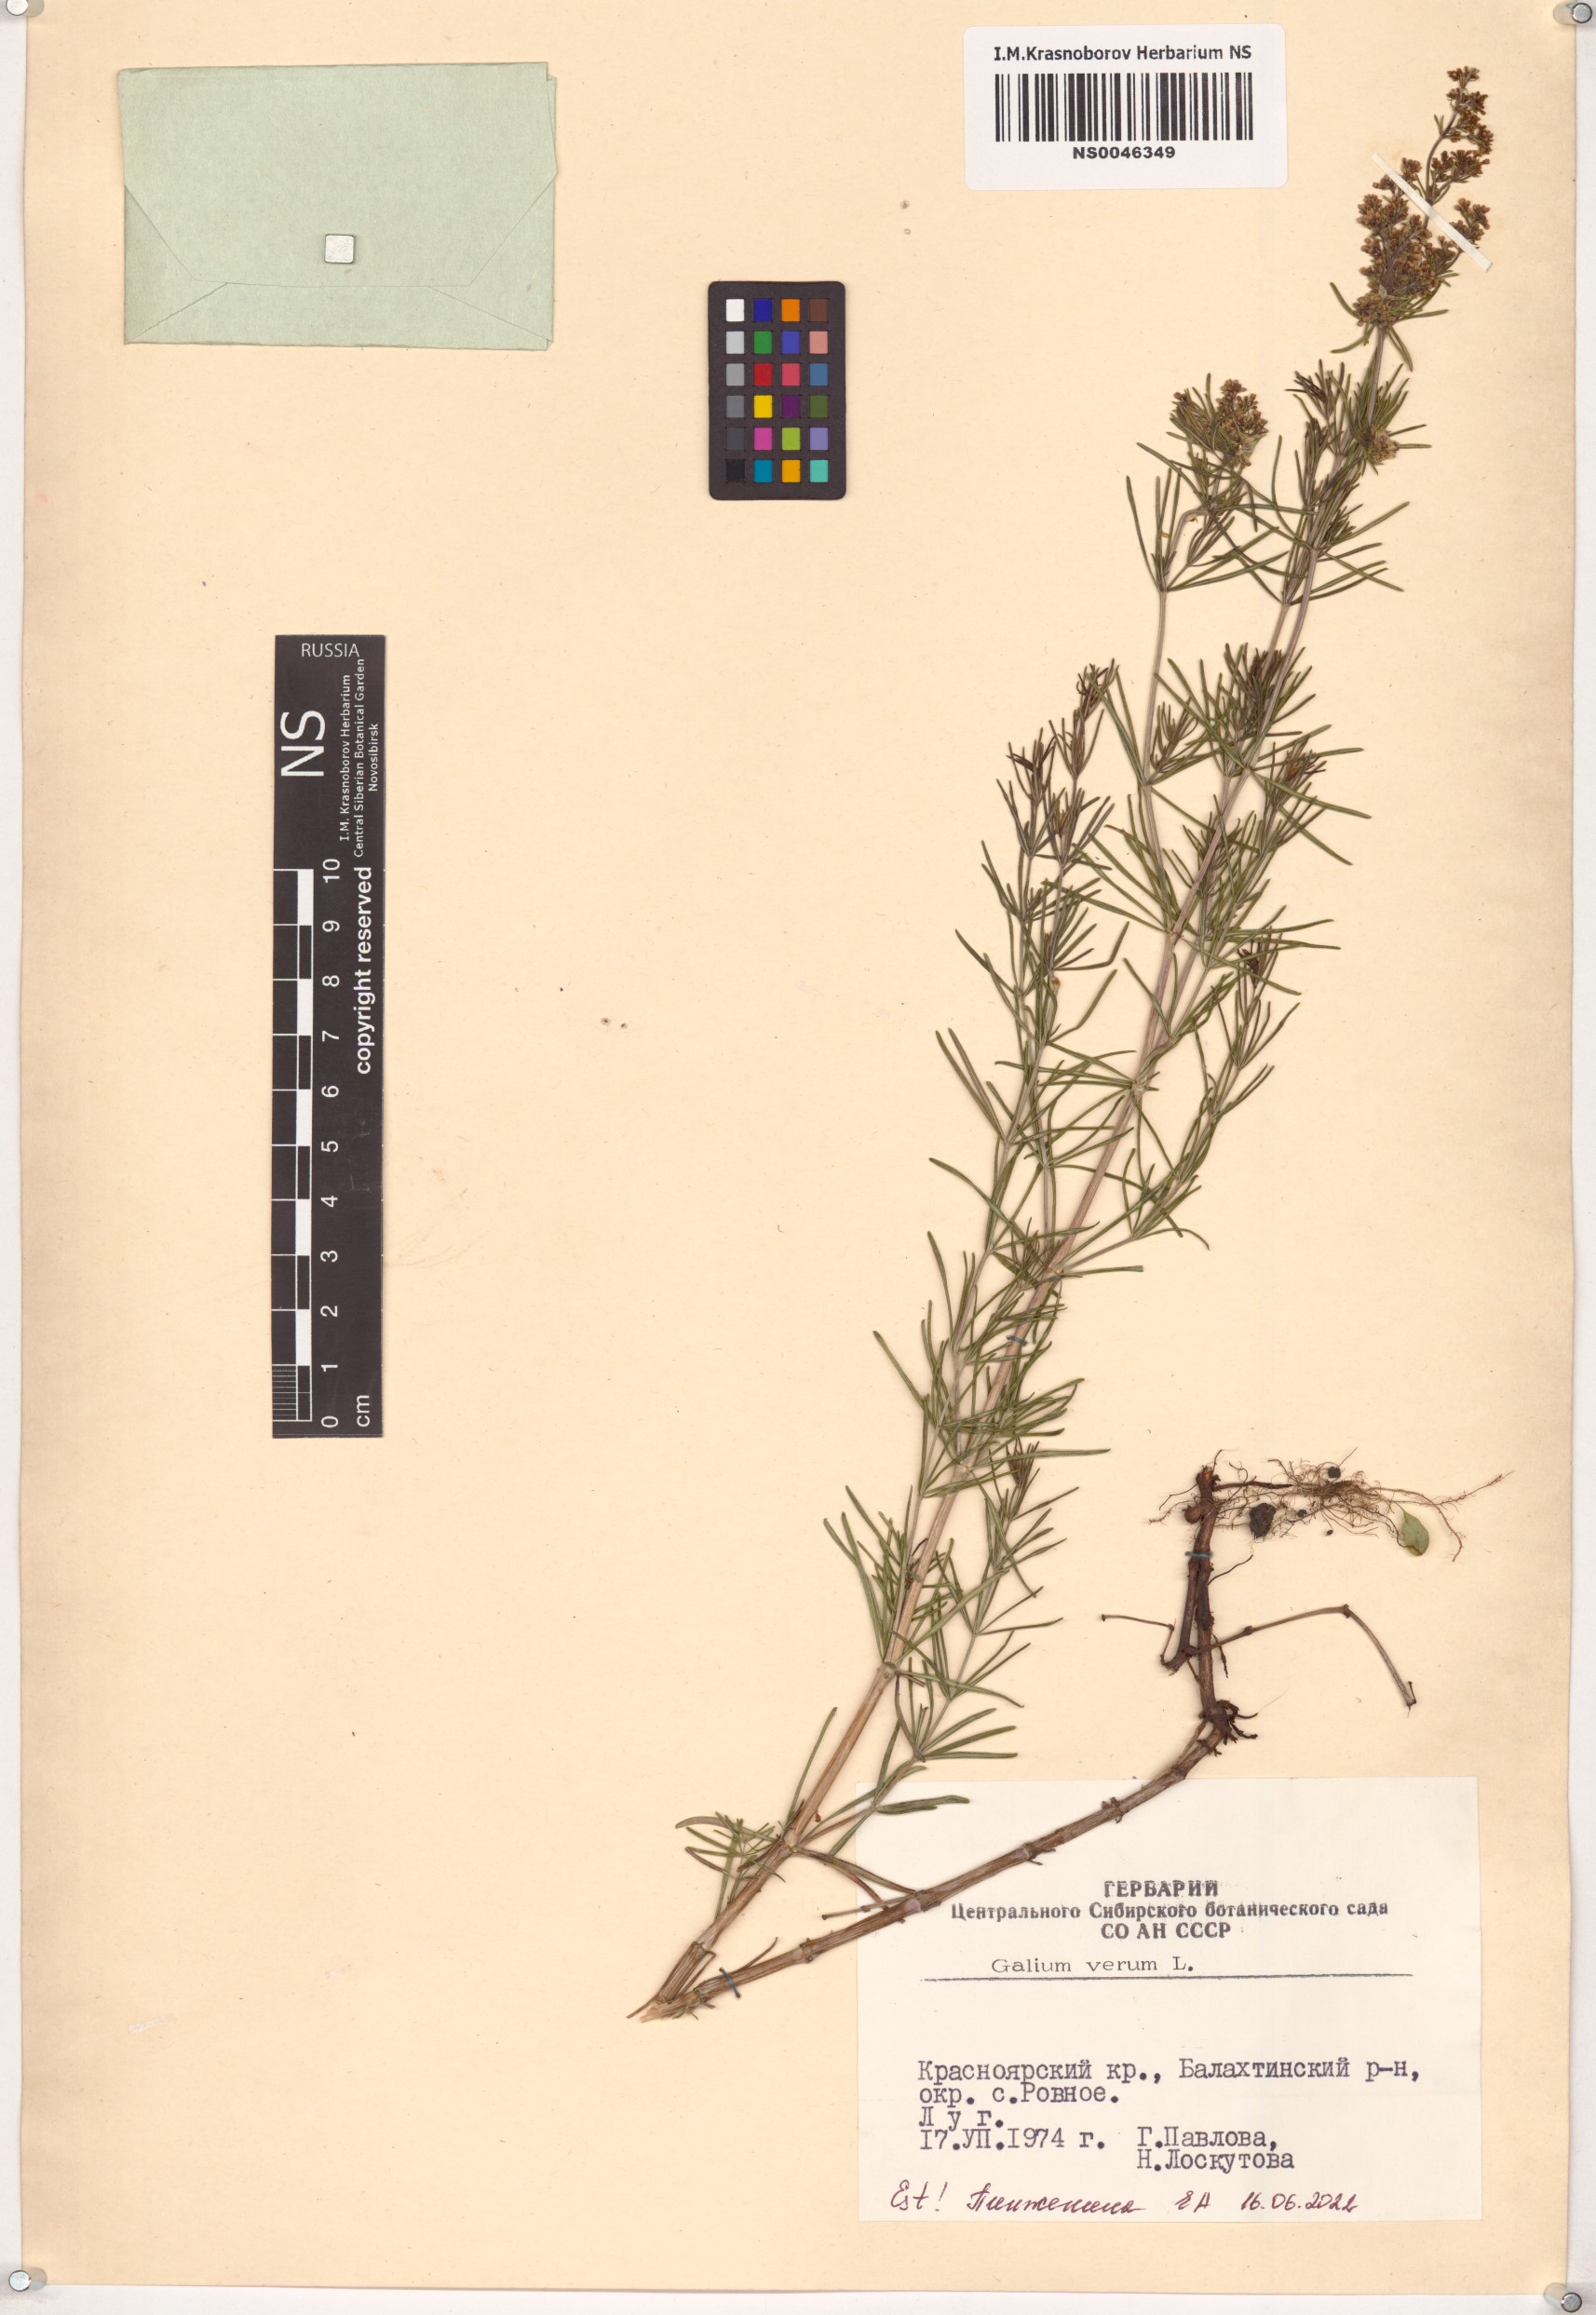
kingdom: Plantae
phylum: Tracheophyta
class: Magnoliopsida
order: Gentianales
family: Rubiaceae
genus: Galium
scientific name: Galium verum
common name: Lady's bedstraw
